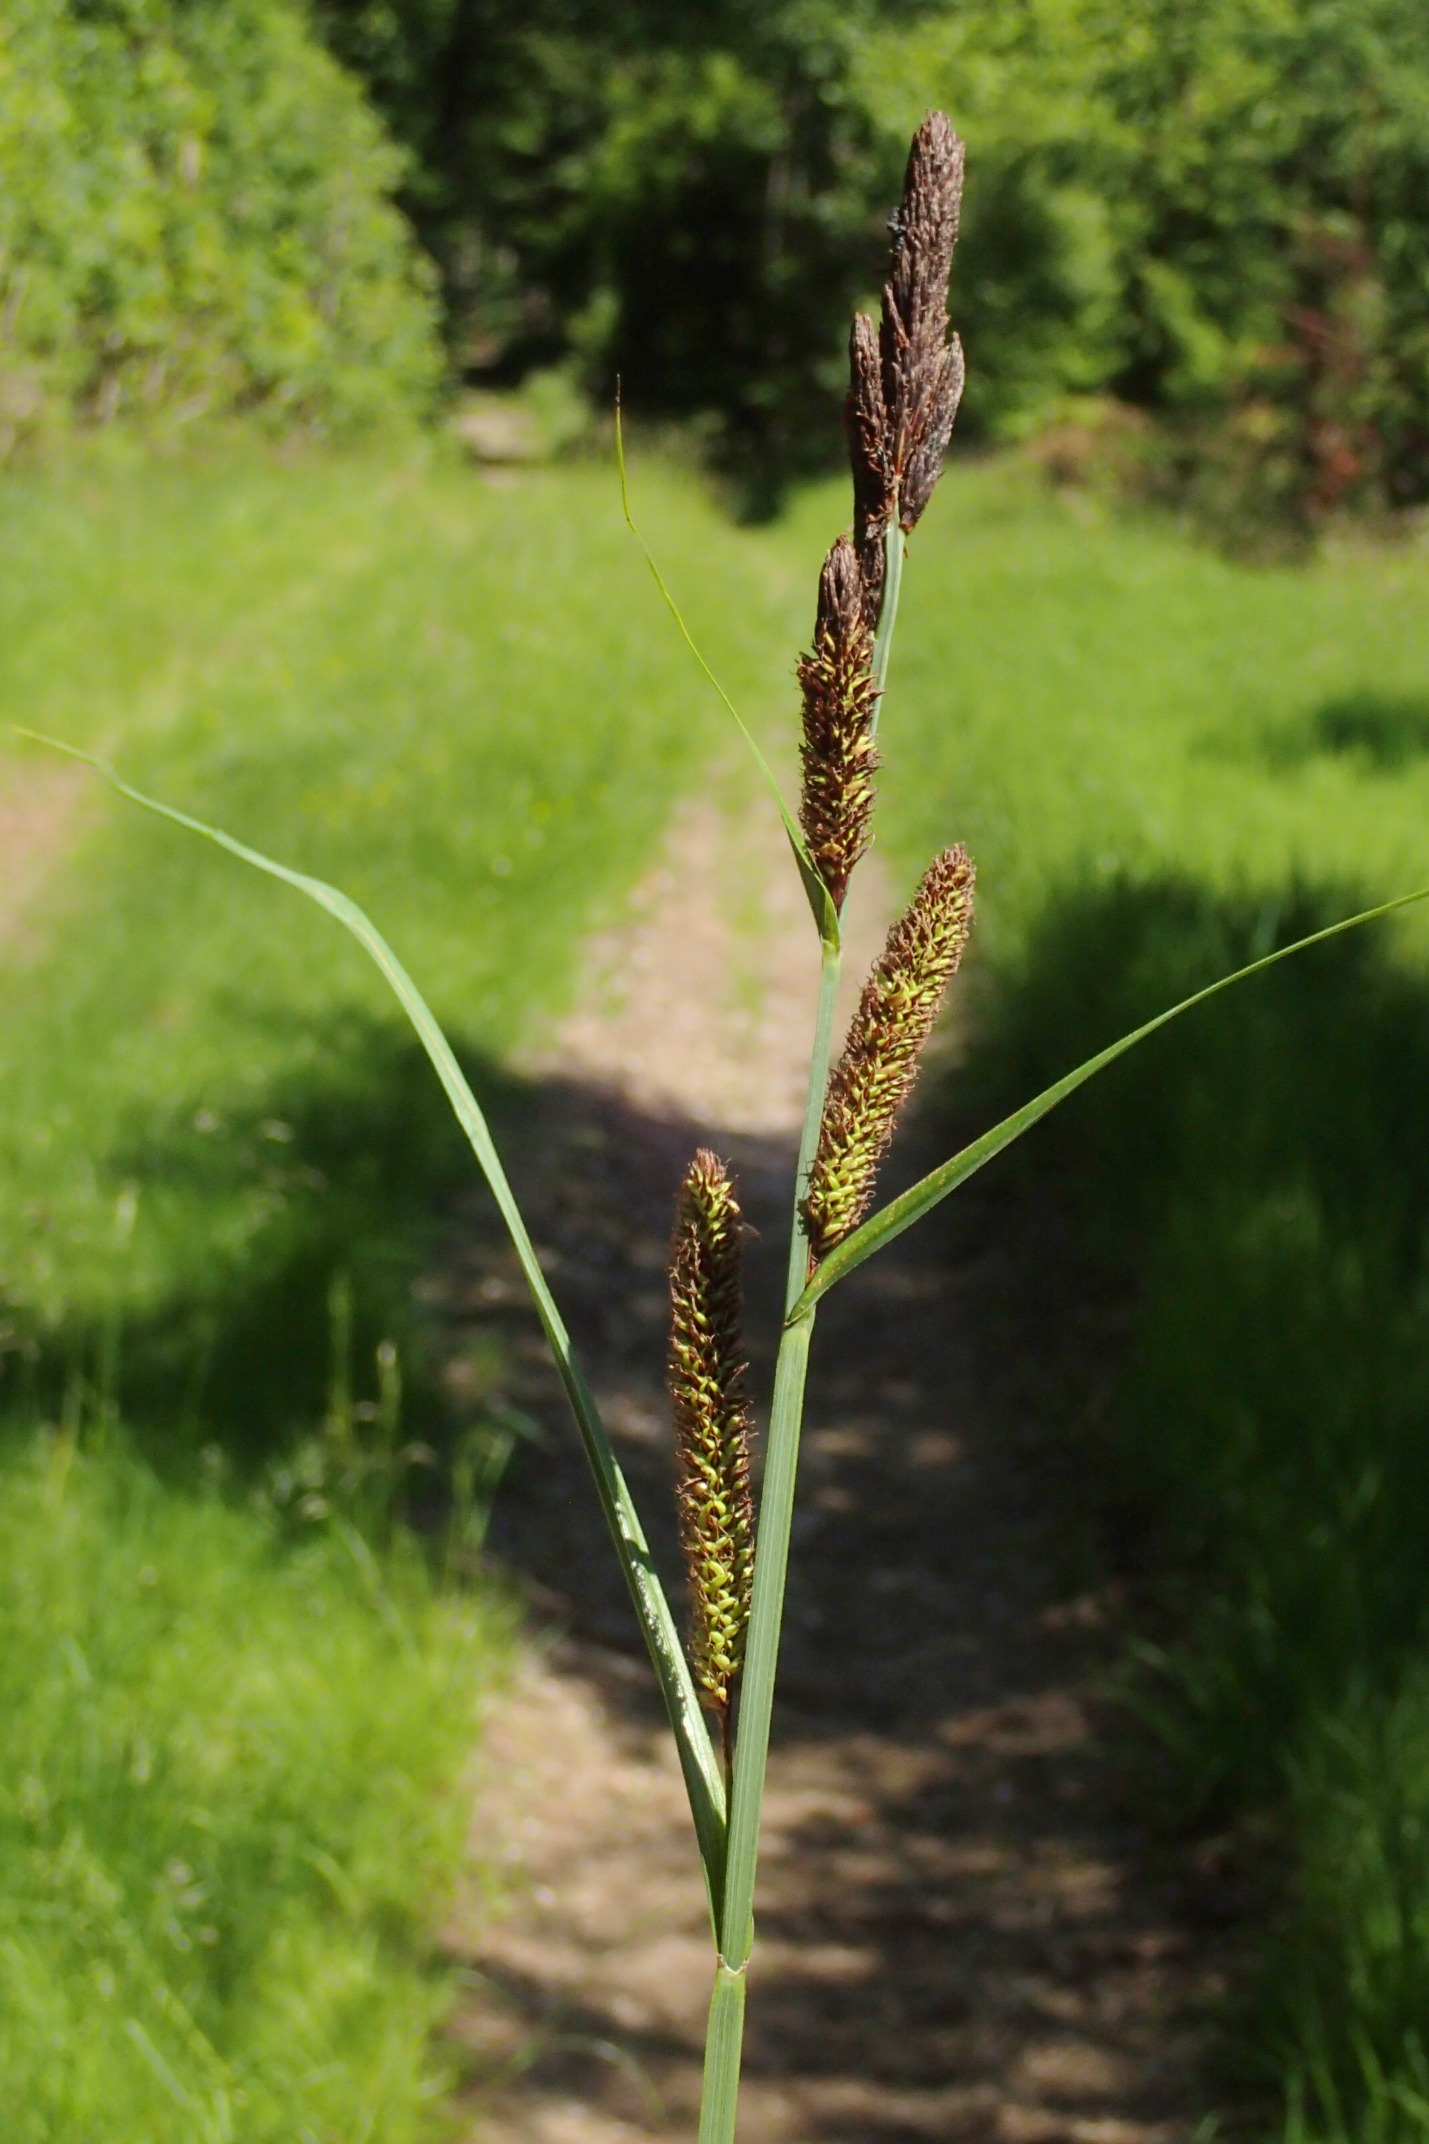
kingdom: Plantae
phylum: Tracheophyta
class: Liliopsida
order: Poales
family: Cyperaceae
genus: Carex
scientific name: Carex acutiformis
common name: Kær-star
